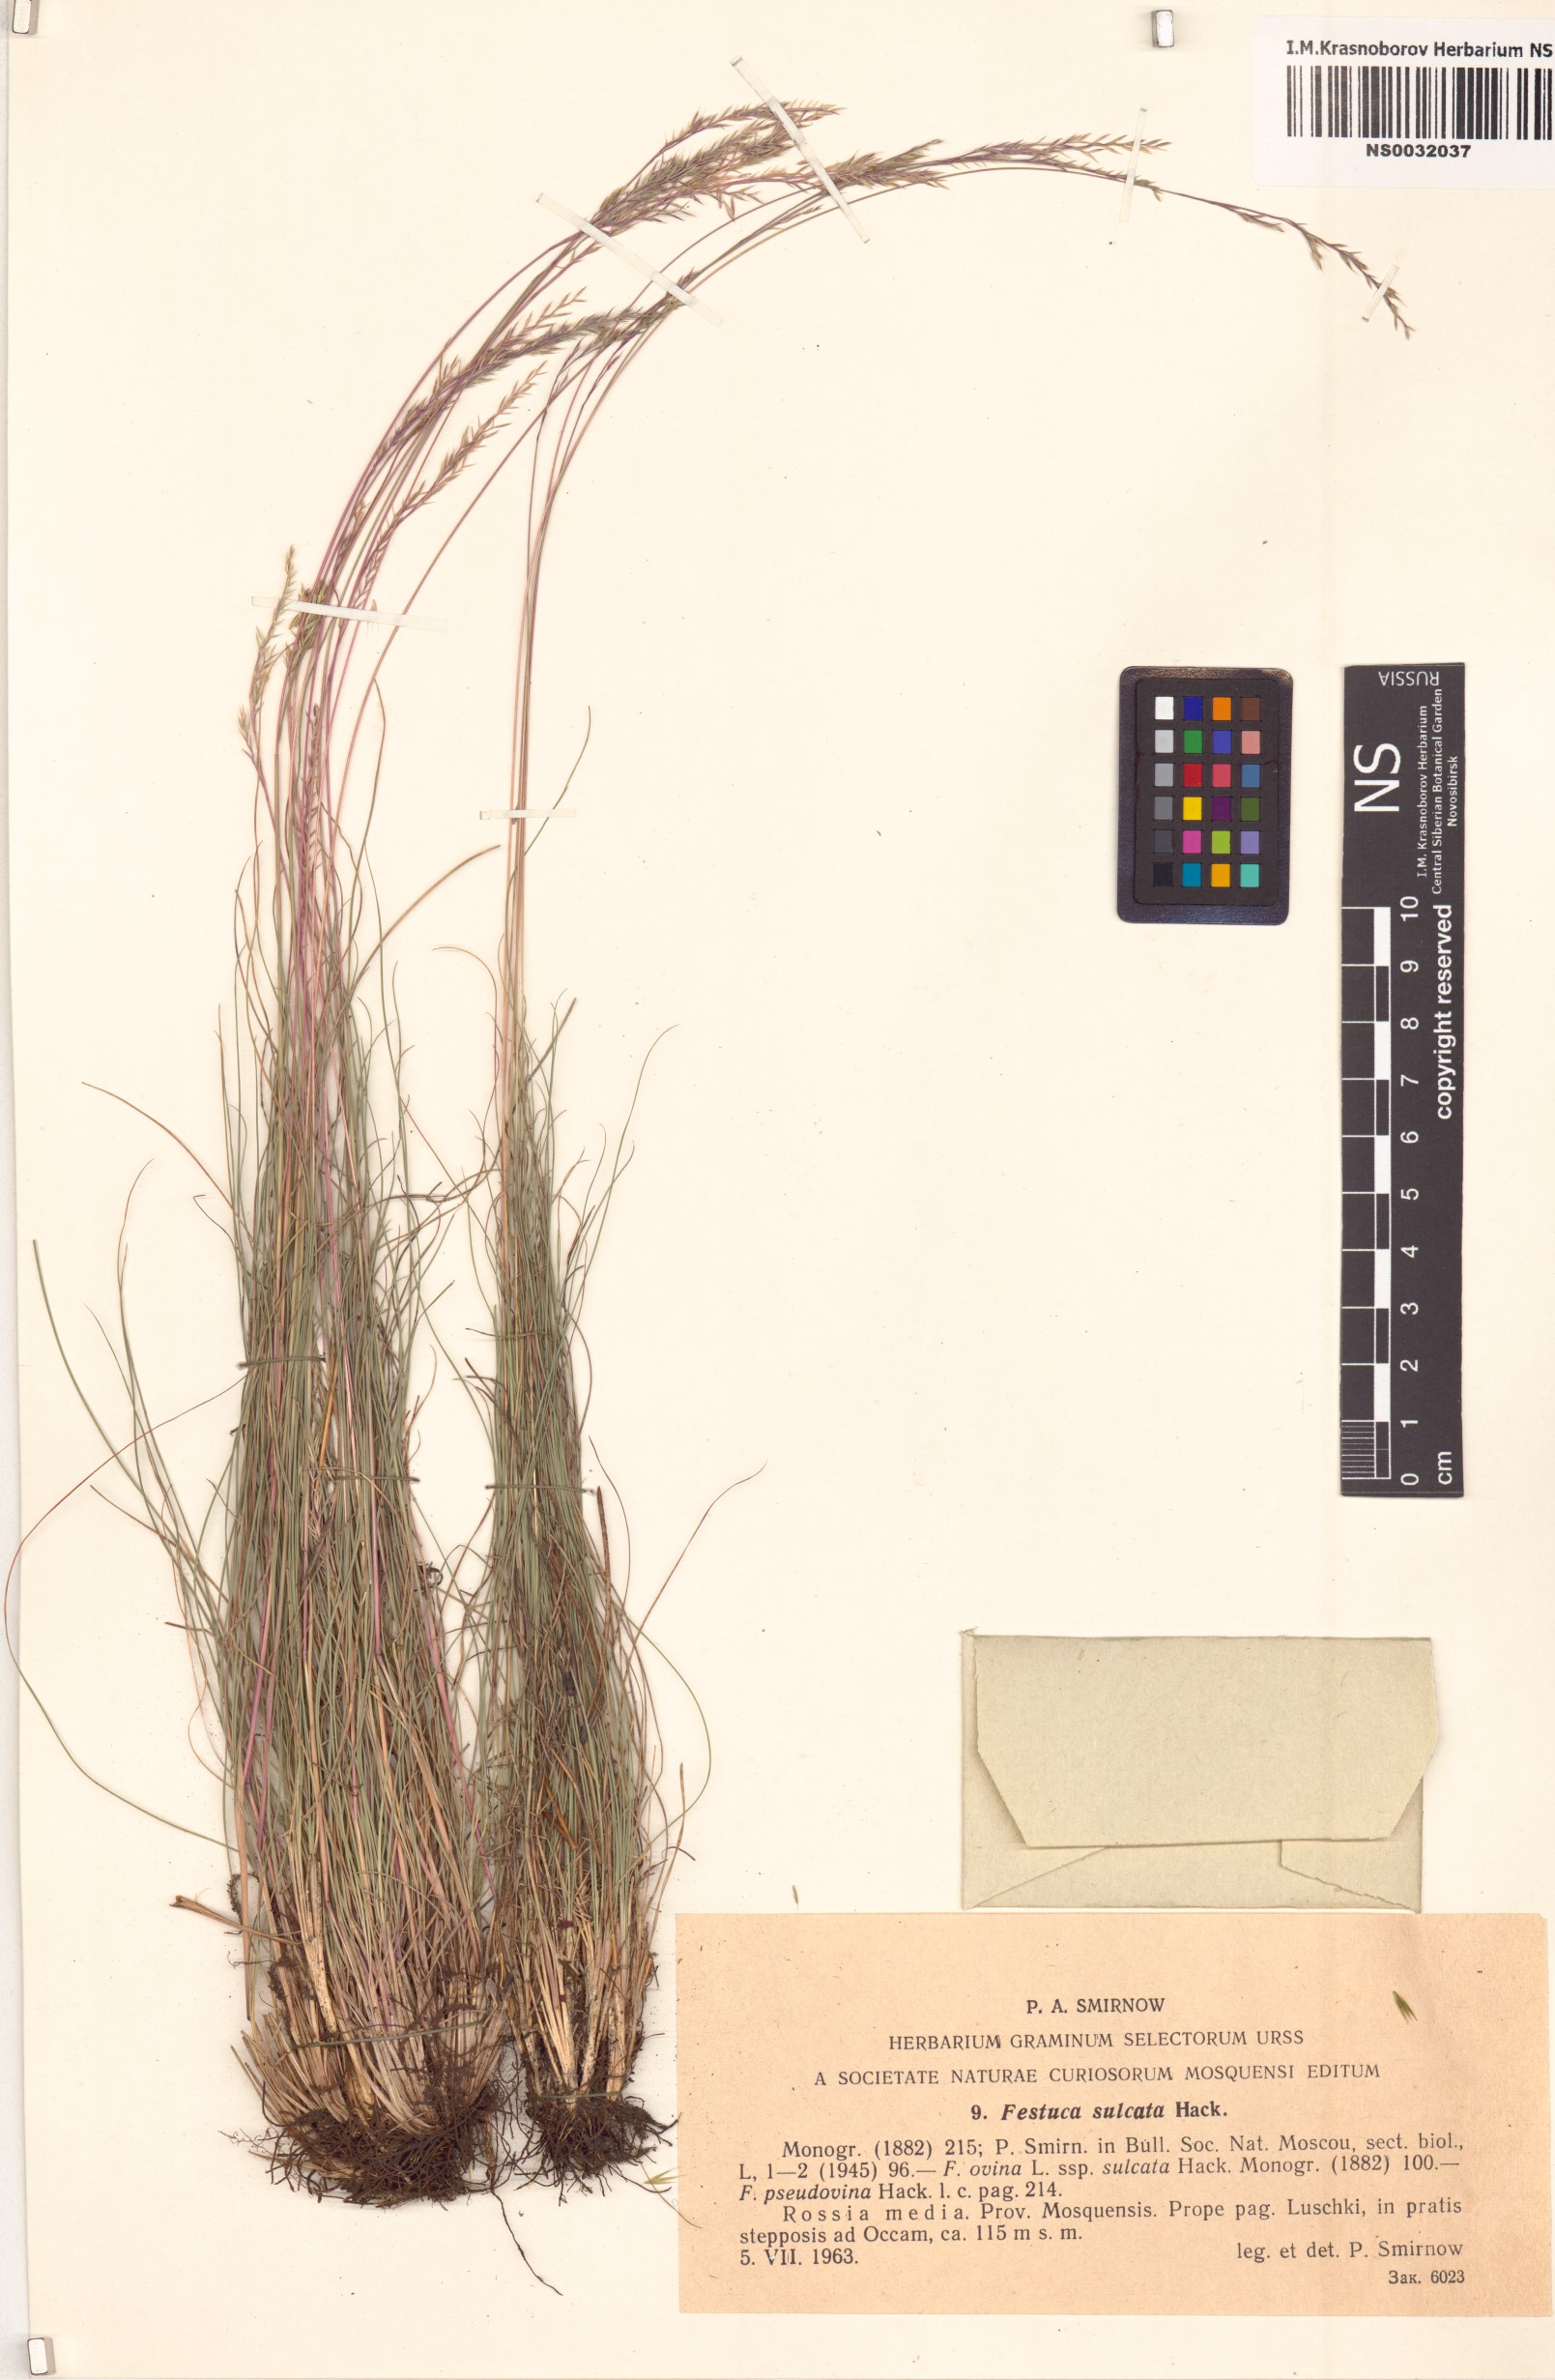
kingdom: Plantae
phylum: Tracheophyta
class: Liliopsida
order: Poales
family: Poaceae
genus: Festuca
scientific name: Festuca rupicola
